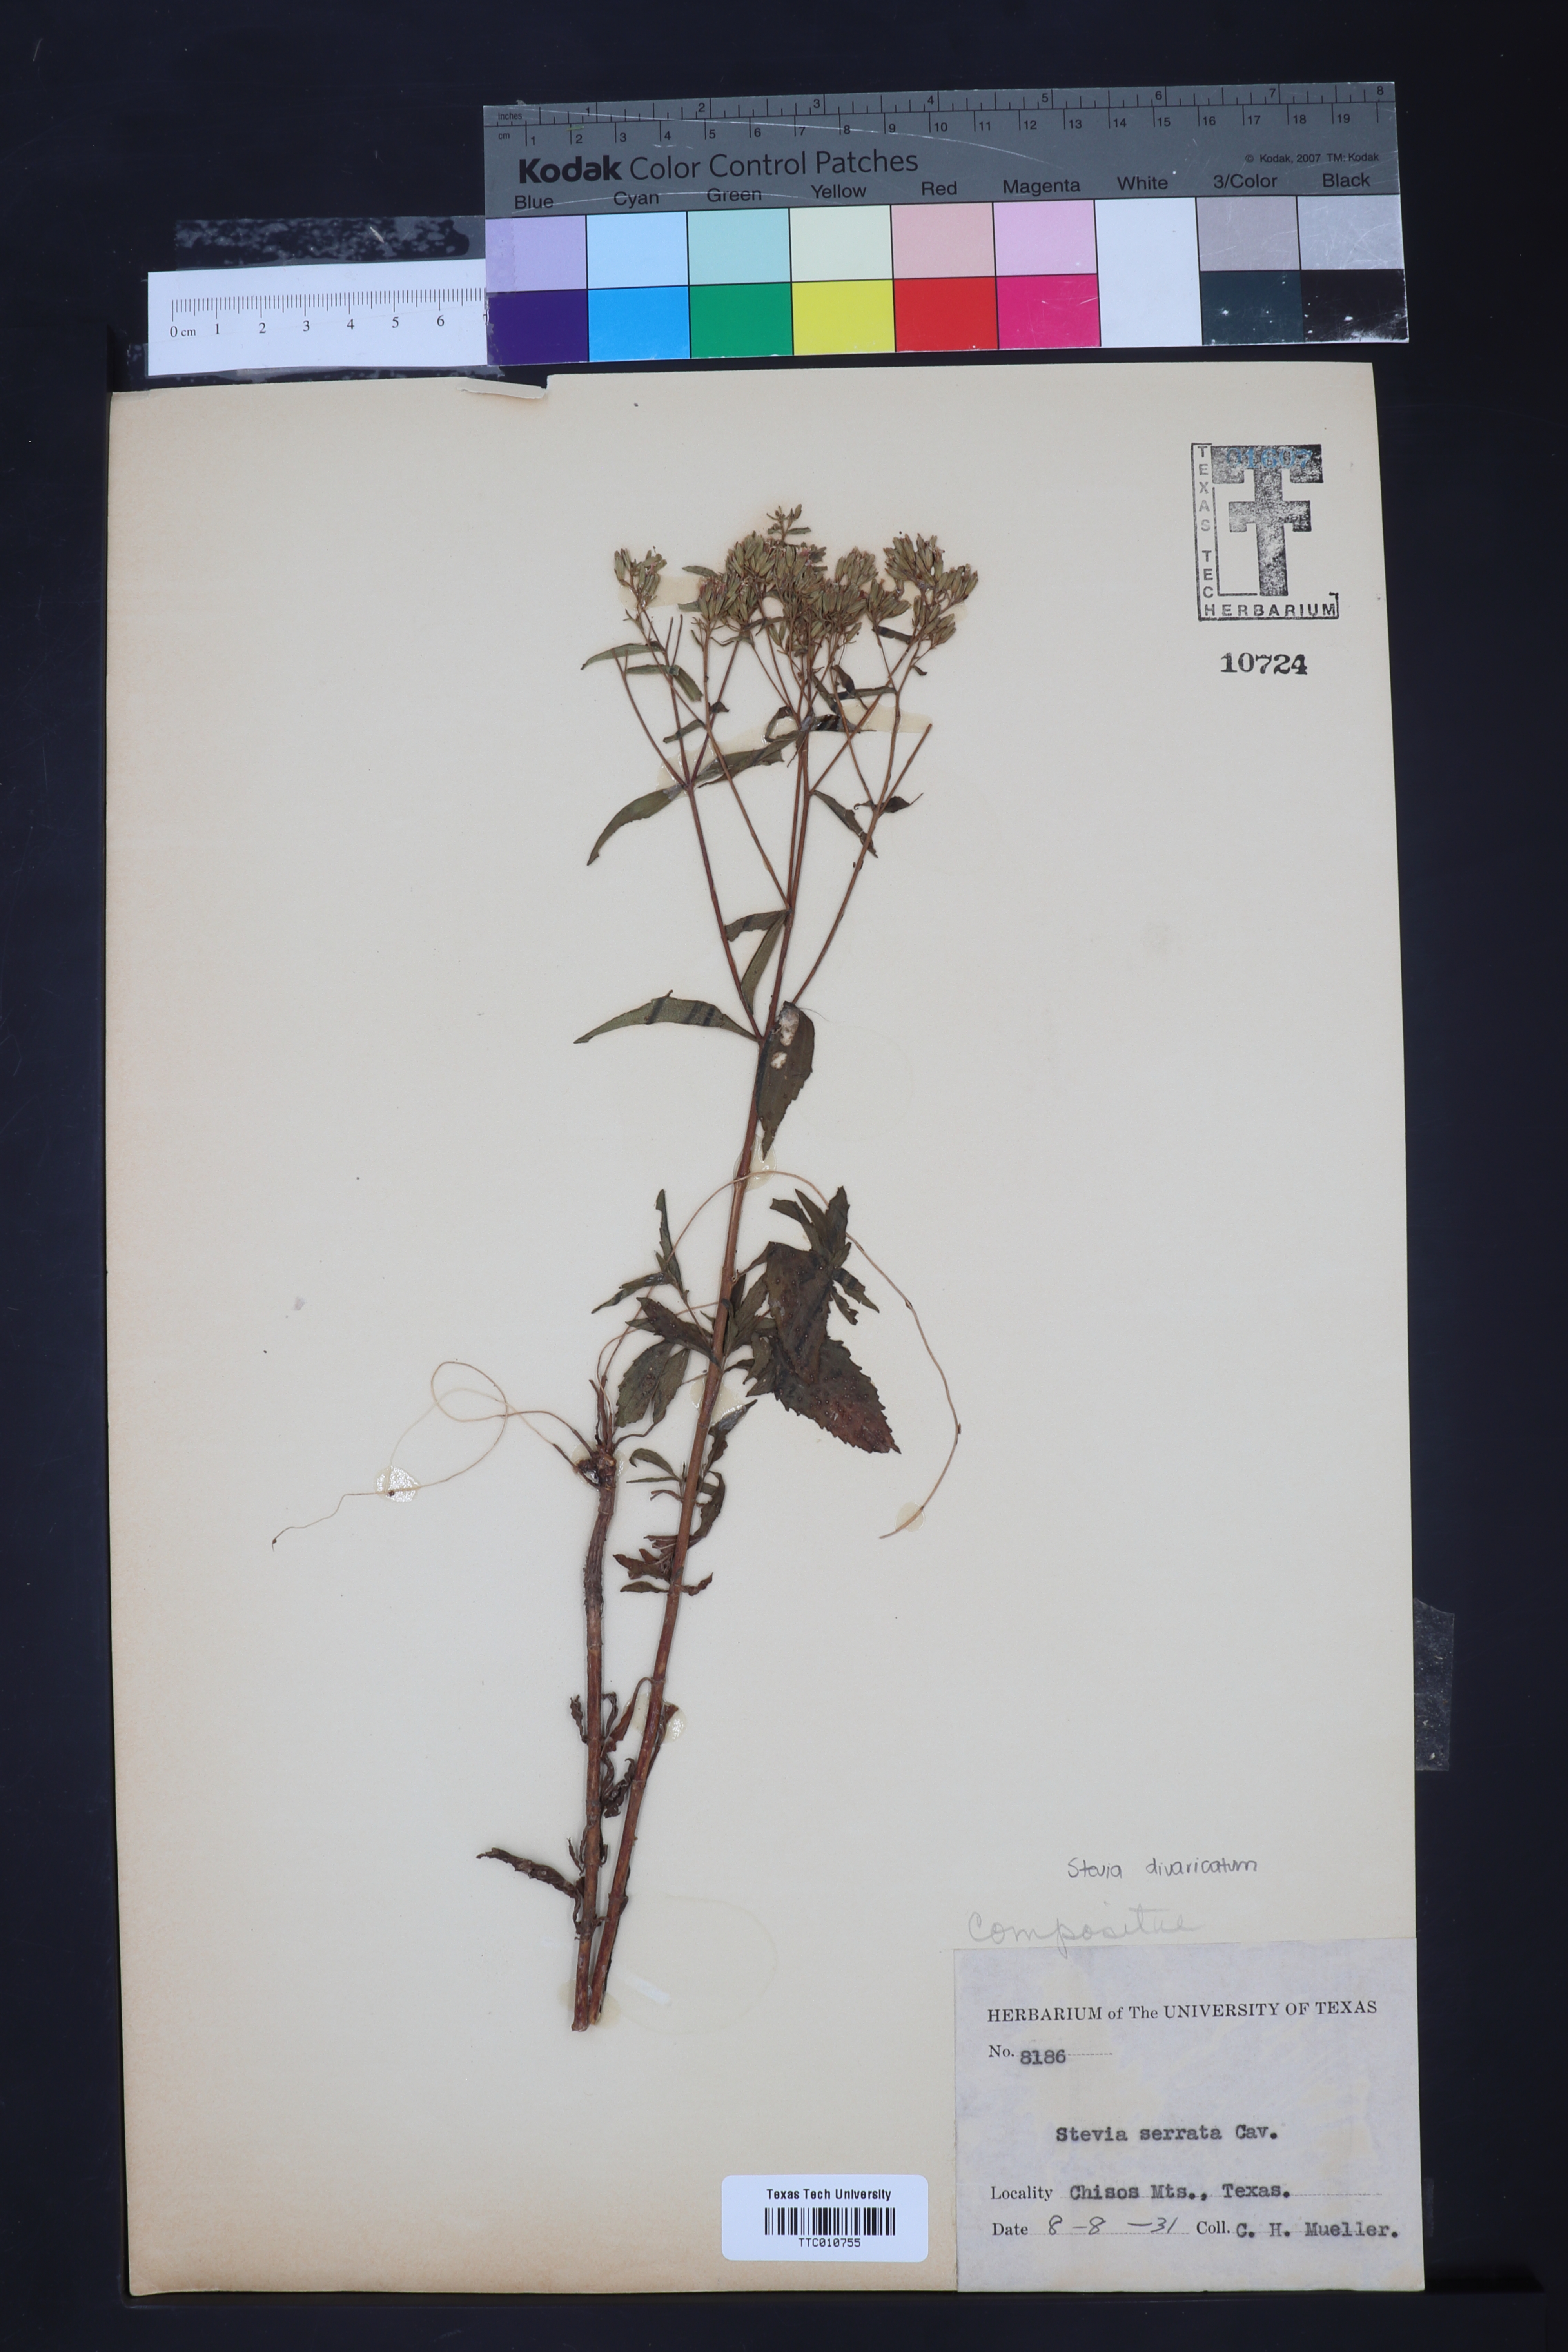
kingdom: Plantae
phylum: Tracheophyta
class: Magnoliopsida
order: Asterales
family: Asteraceae
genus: Stevia
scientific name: Stevia serrata
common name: Sawtooth candyleaf
